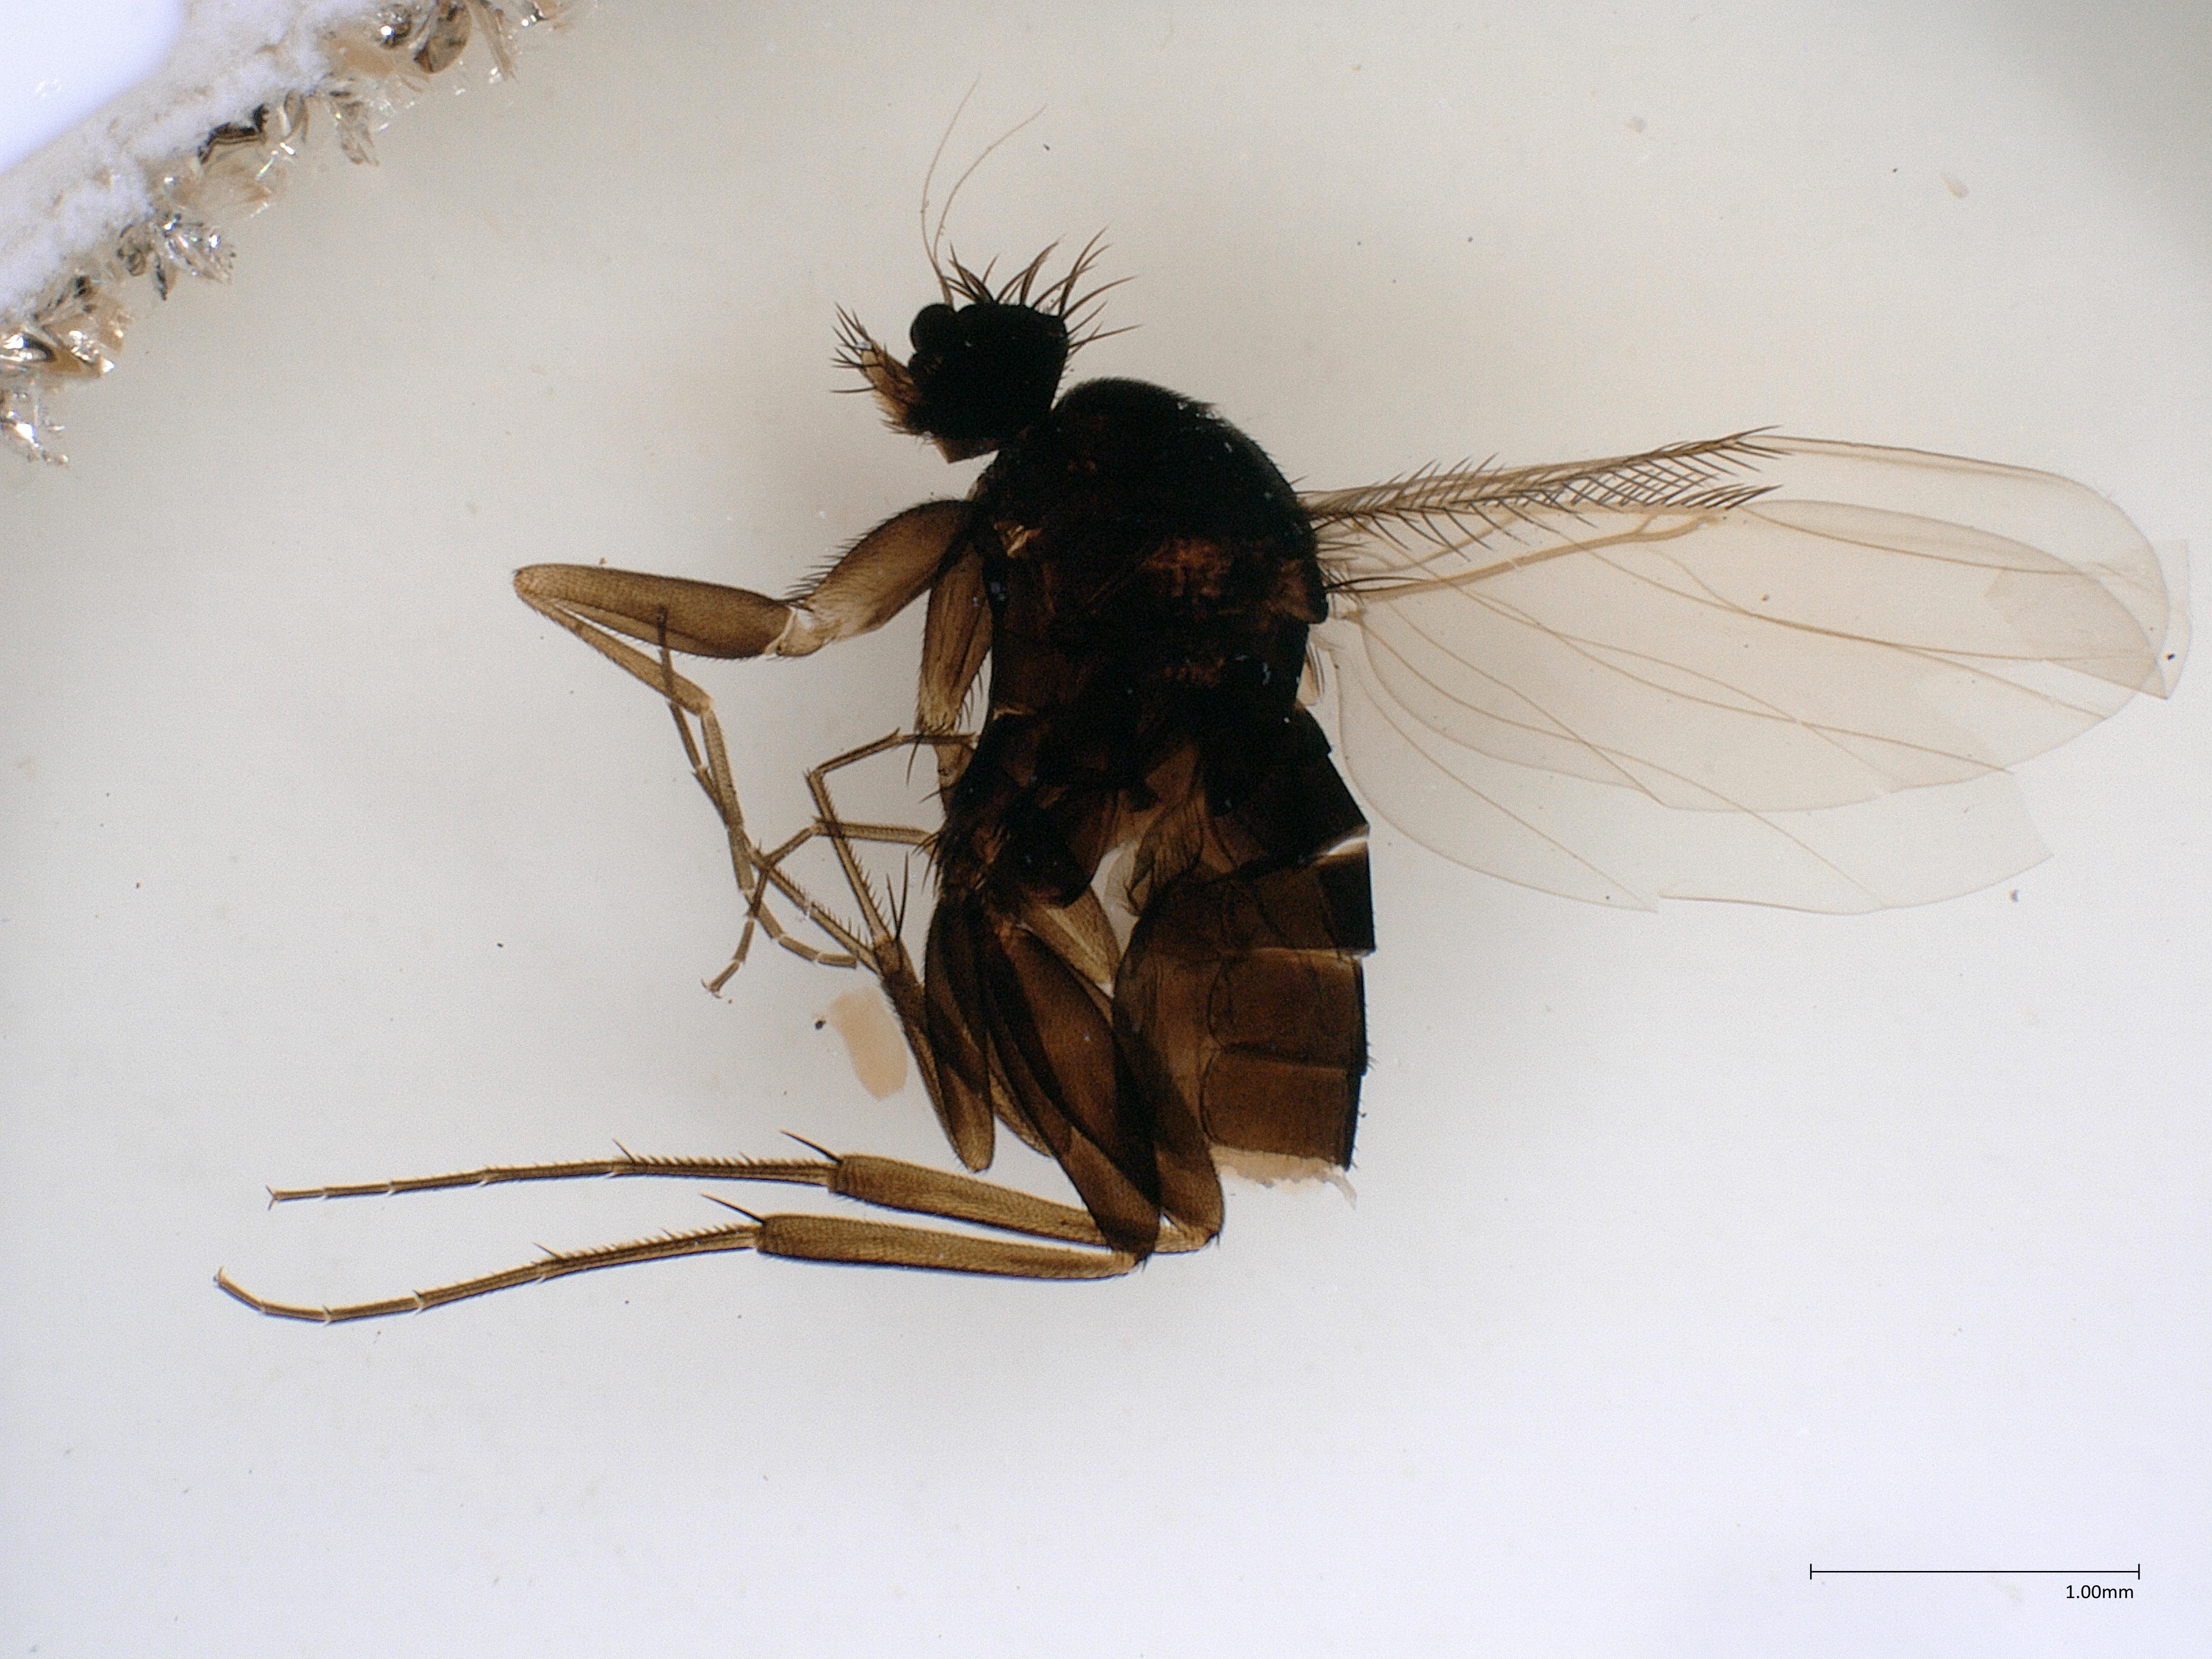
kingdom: Animalia
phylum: Arthropoda
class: Insecta
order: Diptera
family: Phoridae
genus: Megaselia
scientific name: Megaselia tenebricola
